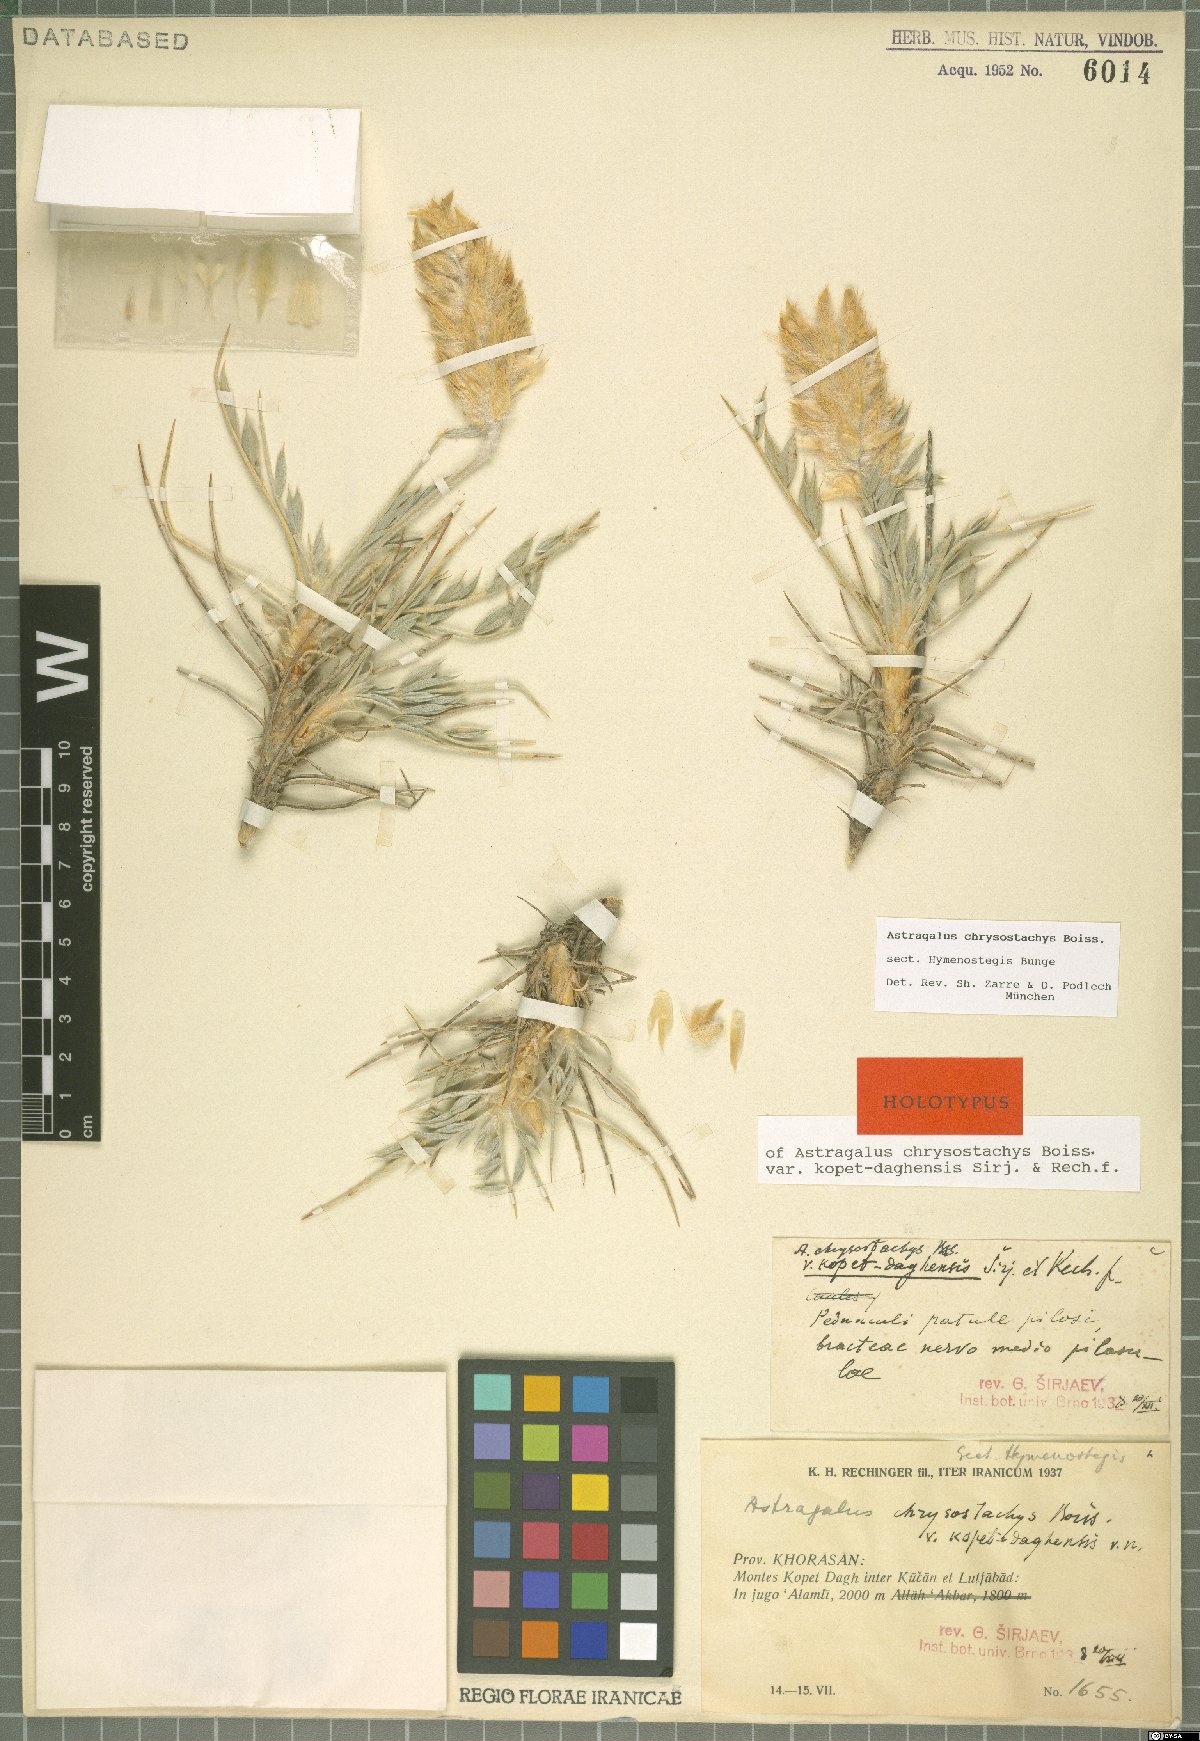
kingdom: Plantae
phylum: Tracheophyta
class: Magnoliopsida
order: Fabales
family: Fabaceae
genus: Astragalus
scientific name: Astragalus chrysostachys
